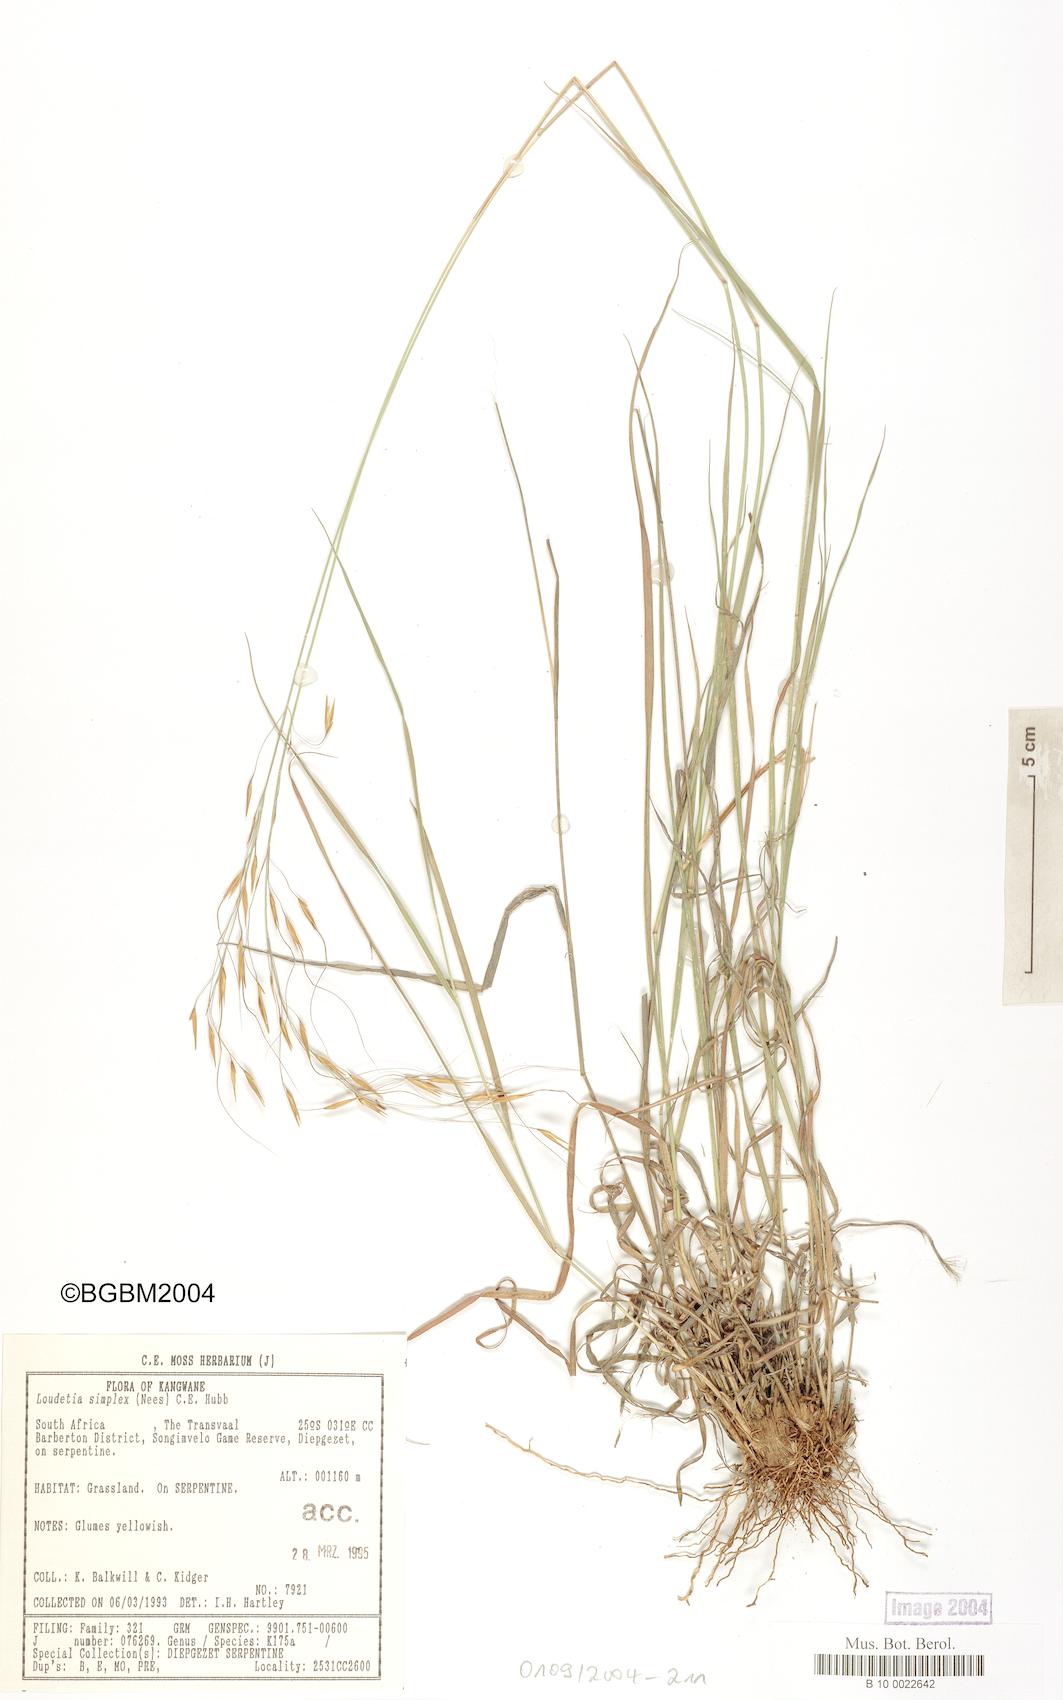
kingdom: Plantae
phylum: Tracheophyta
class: Liliopsida
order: Poales
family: Poaceae
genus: Loudetia
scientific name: Loudetia simplex
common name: Common russet grass
